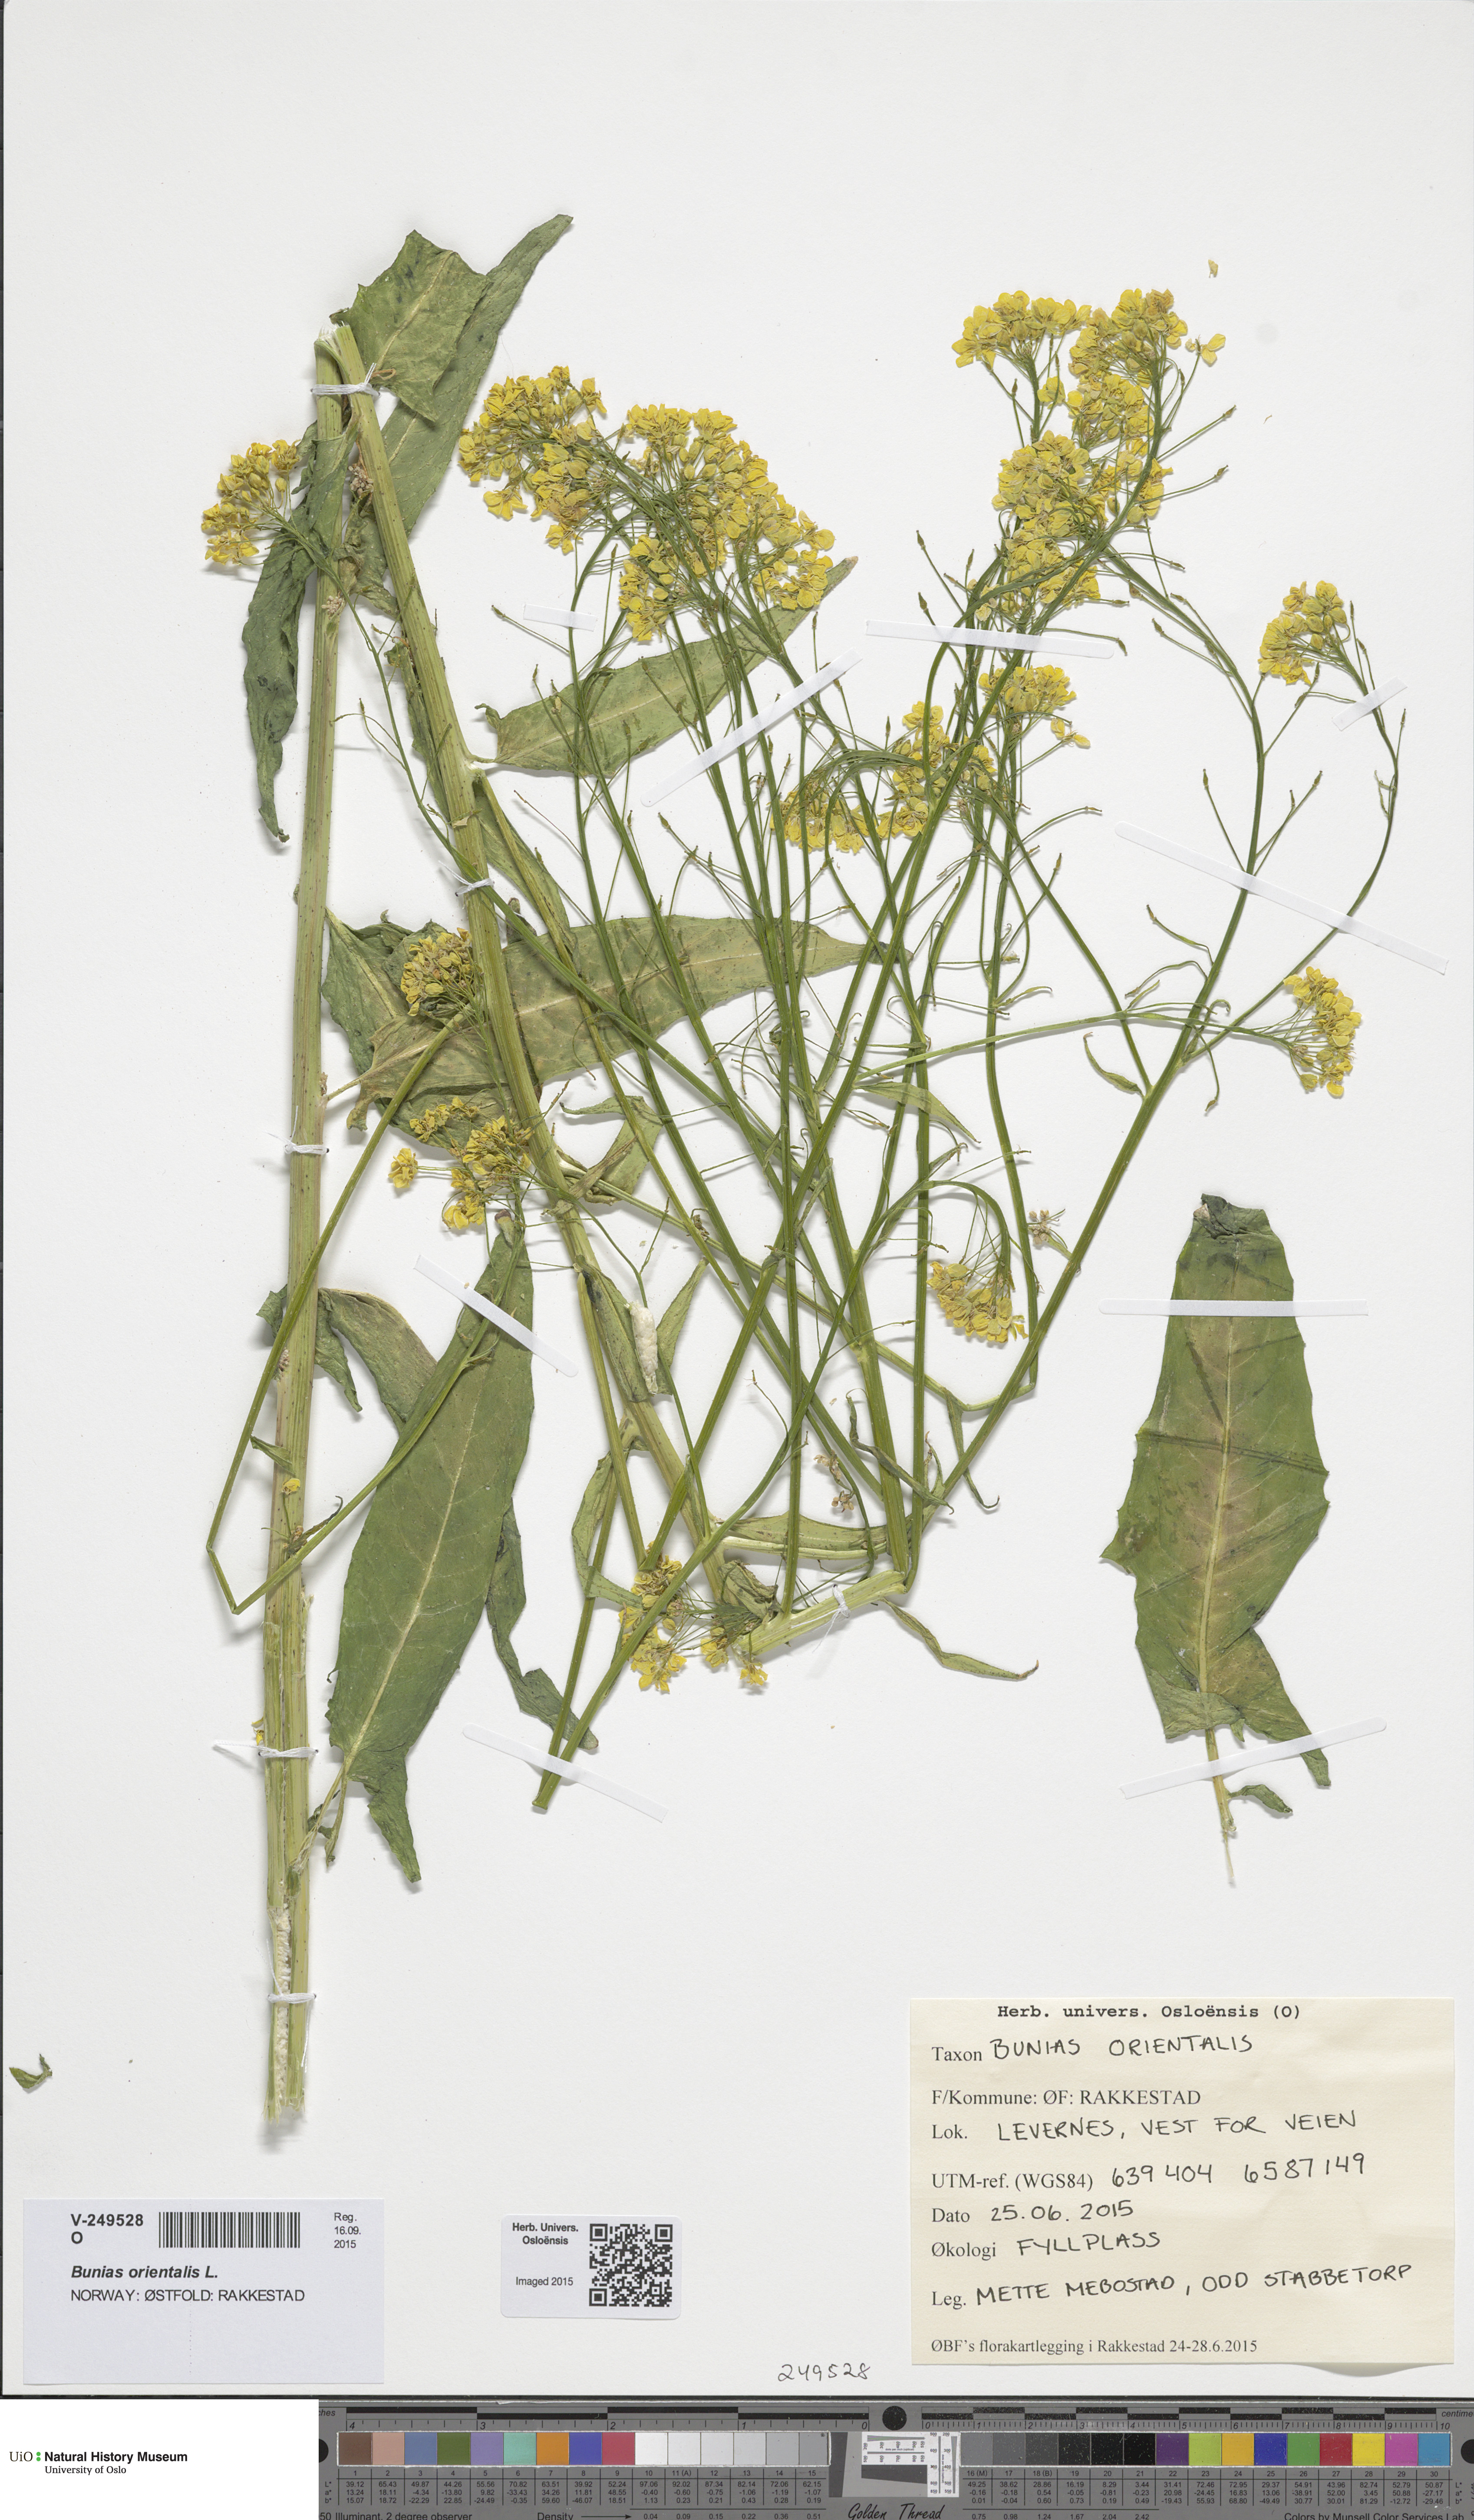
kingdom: Plantae
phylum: Tracheophyta
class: Magnoliopsida
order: Brassicales
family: Brassicaceae
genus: Bunias
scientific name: Bunias orientalis
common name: Warty-cabbage
